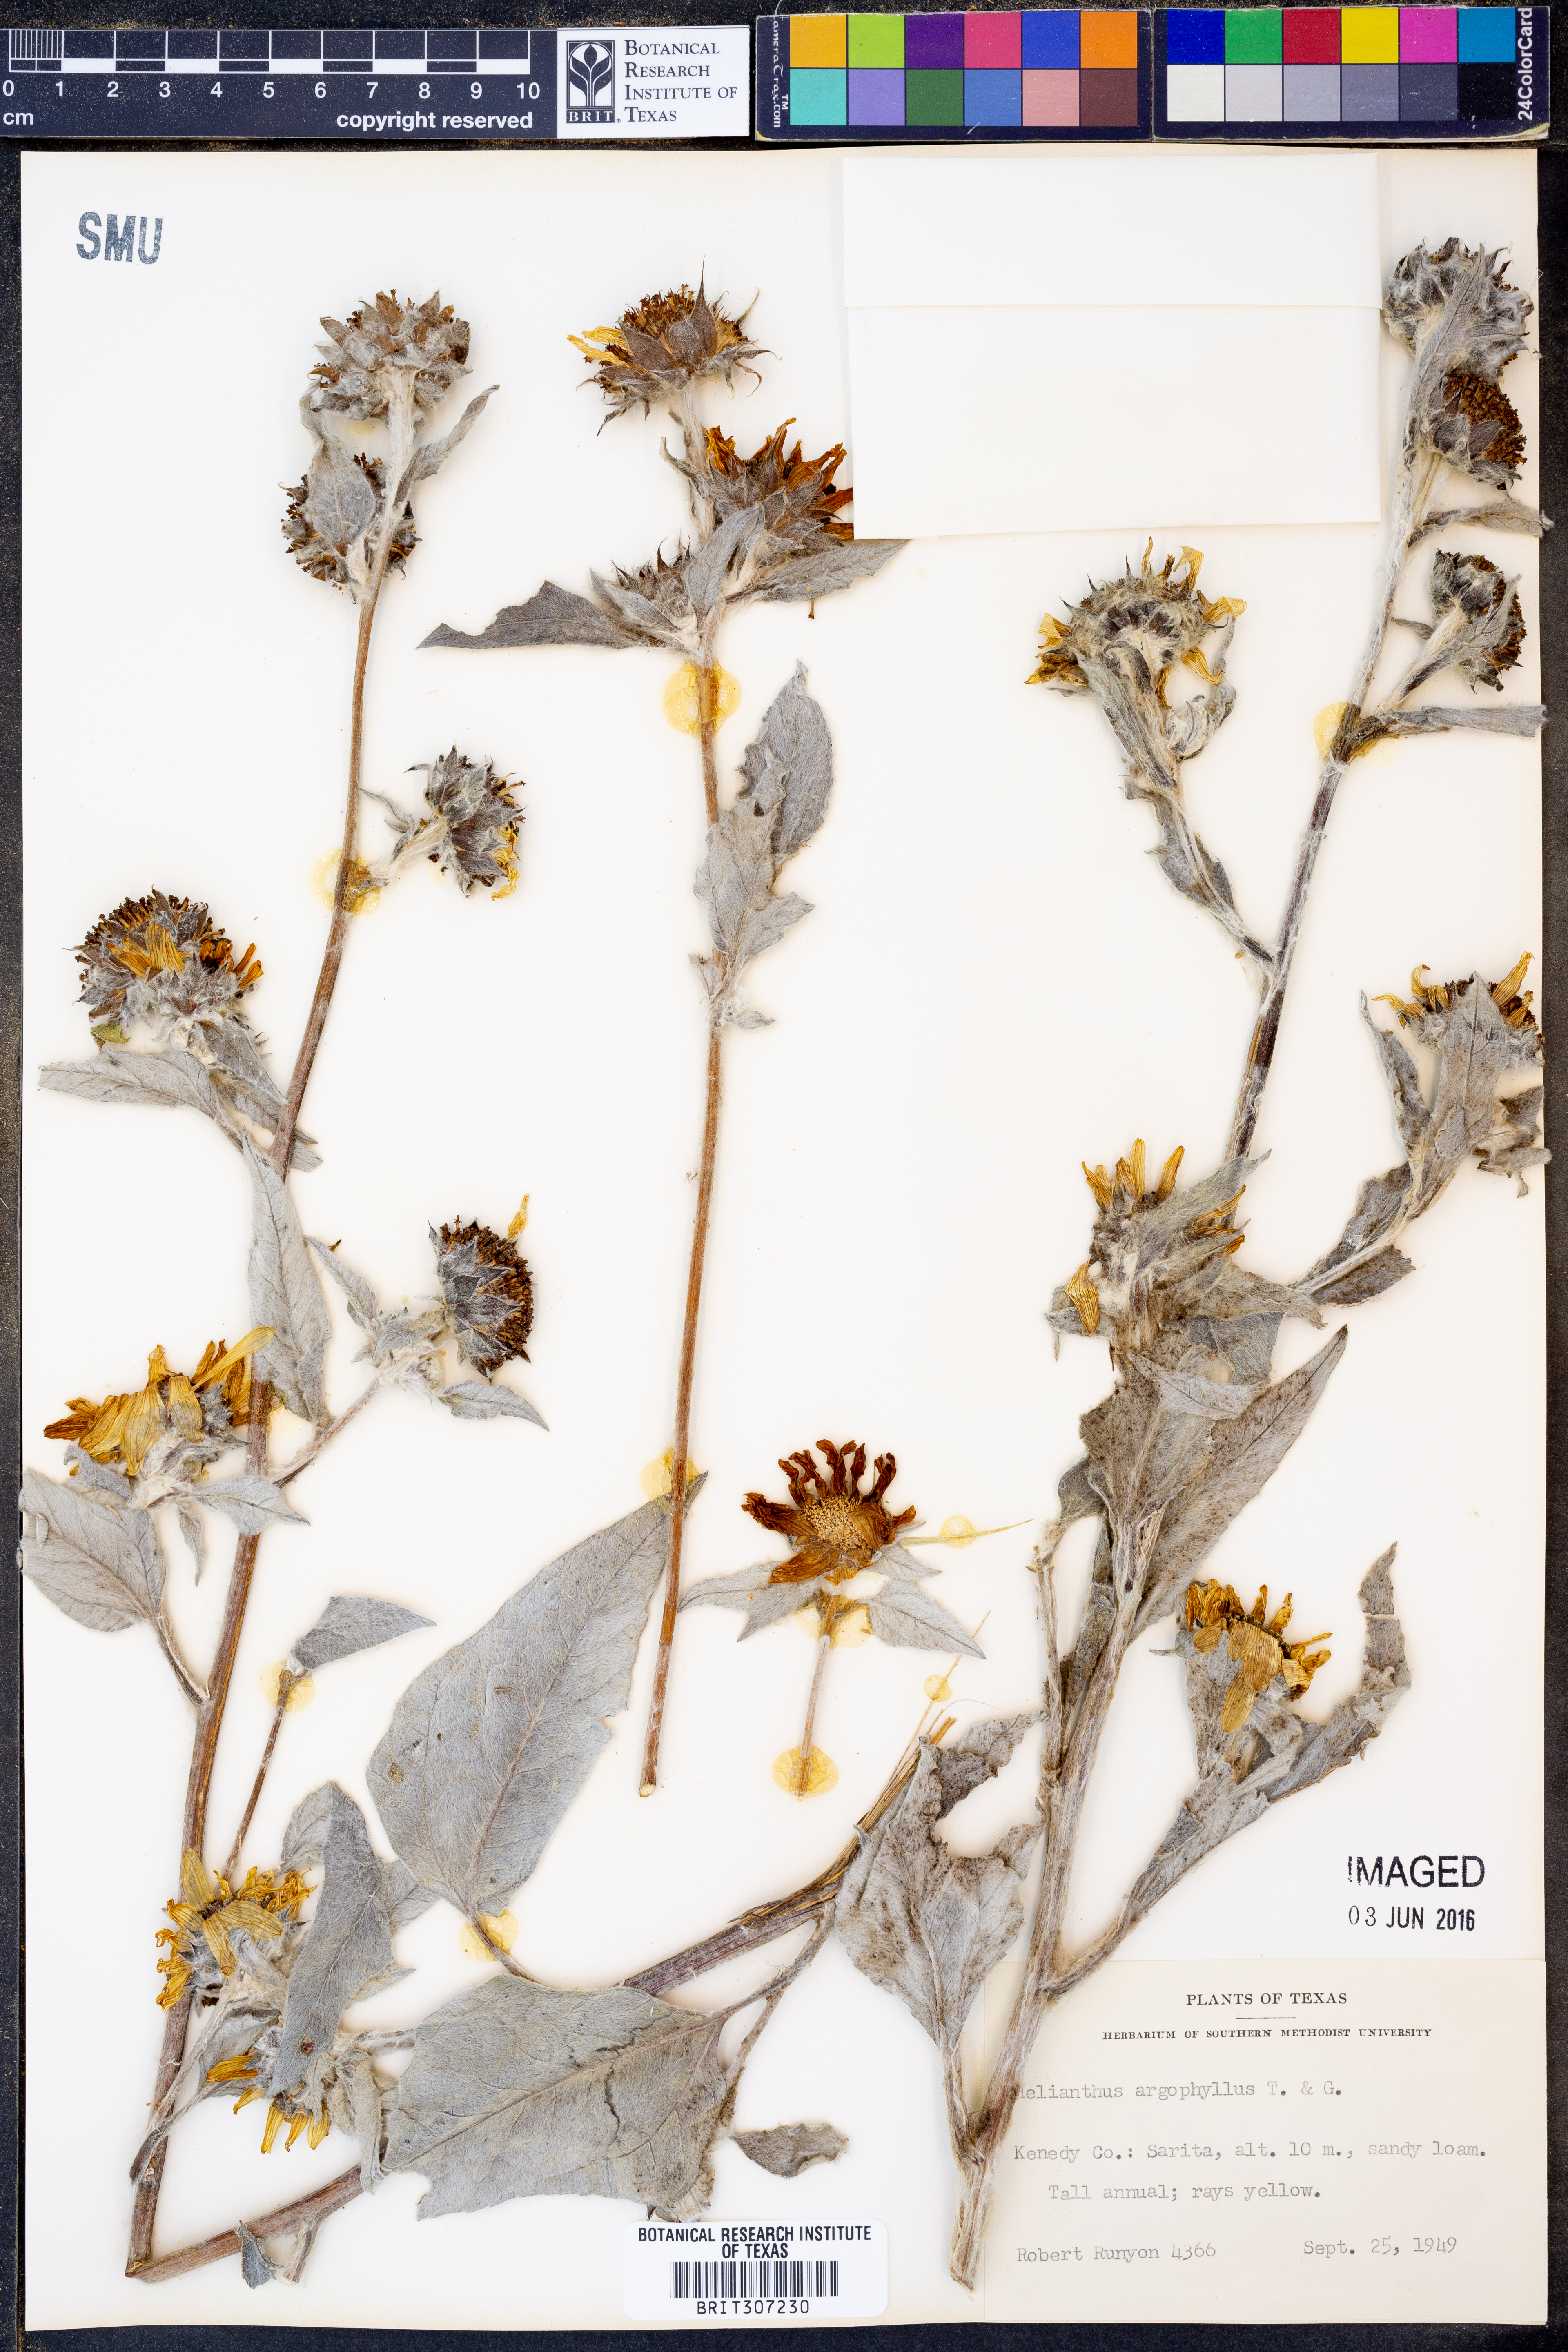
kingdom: Plantae
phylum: Tracheophyta
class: Magnoliopsida
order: Asterales
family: Asteraceae
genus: Helianthus
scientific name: Helianthus argophyllus
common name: Silverleaf sunflower
